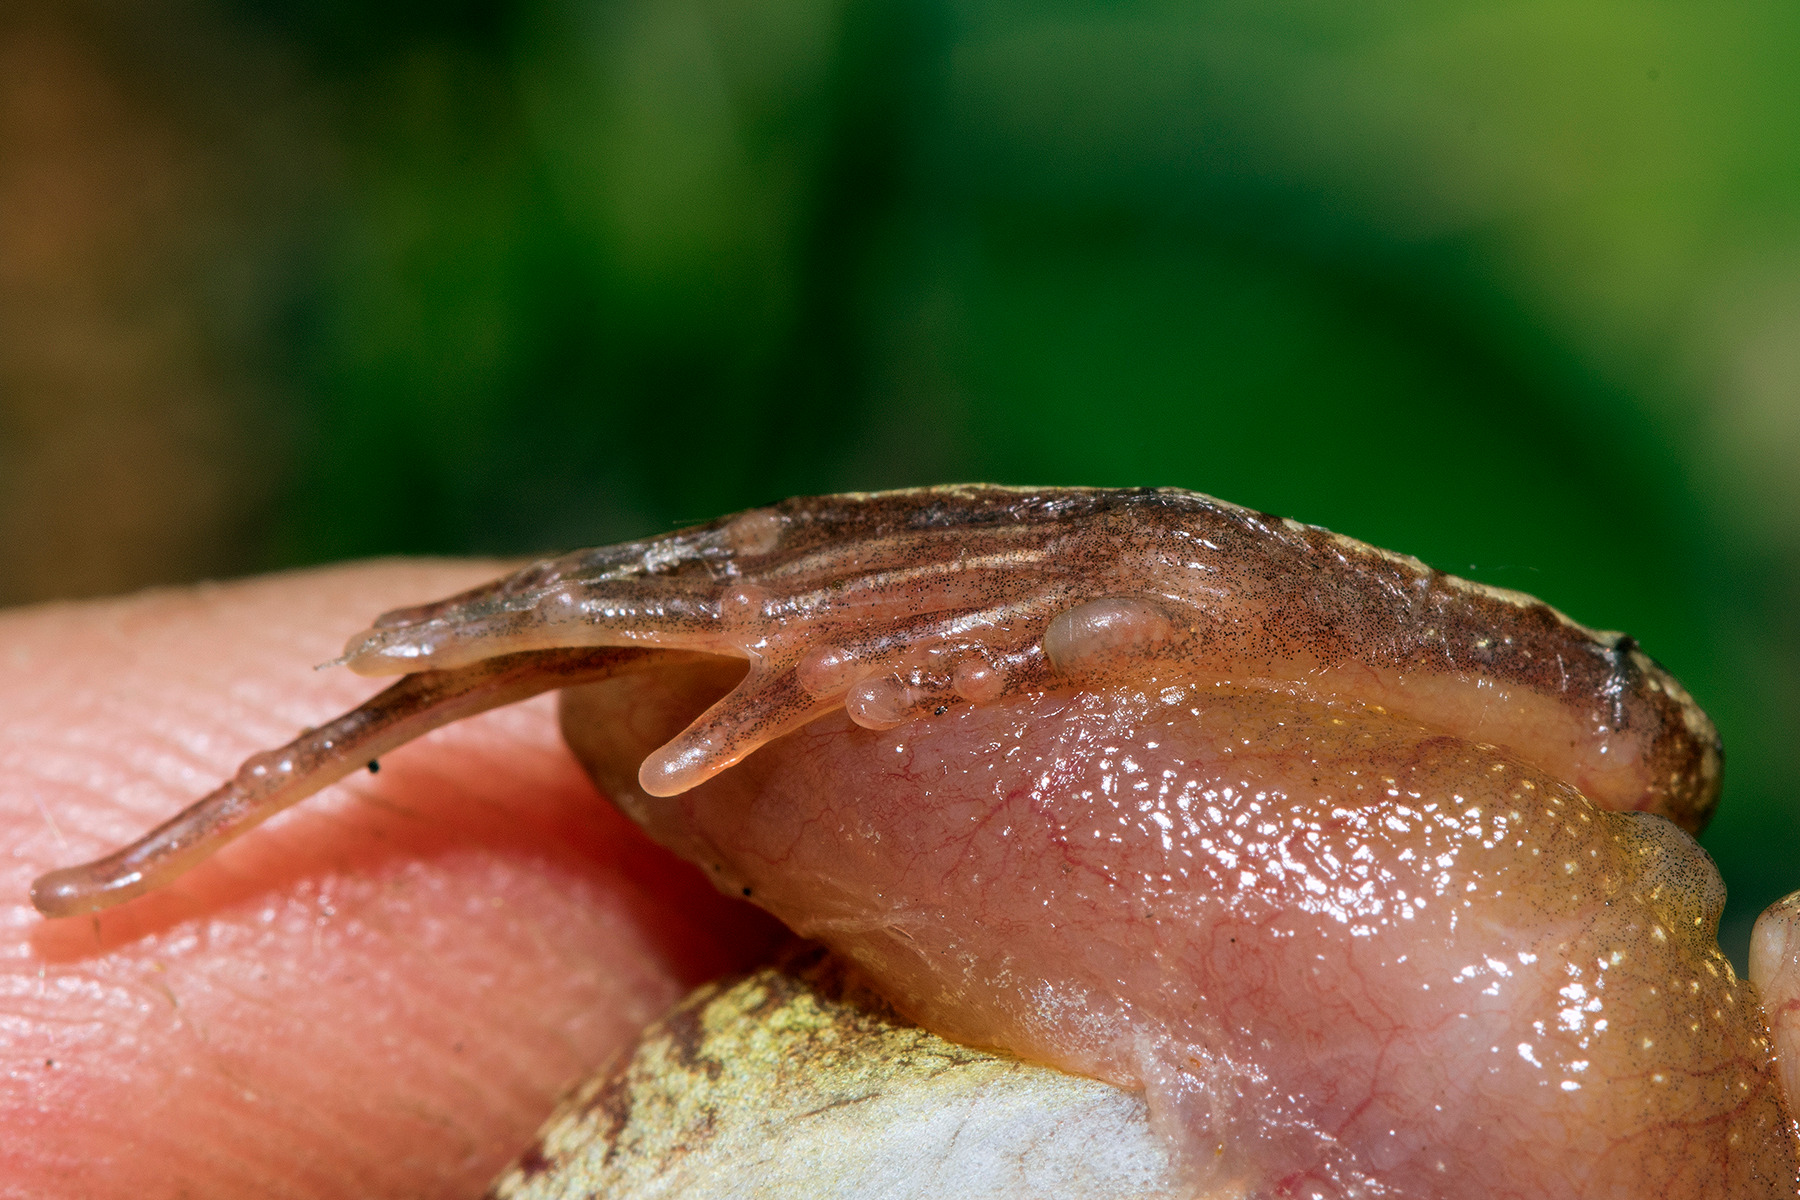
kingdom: Animalia
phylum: Chordata
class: Amphibia
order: Anura
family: Ranidae
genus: Rana
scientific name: Rana arvalis
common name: Spidssnudet frø
